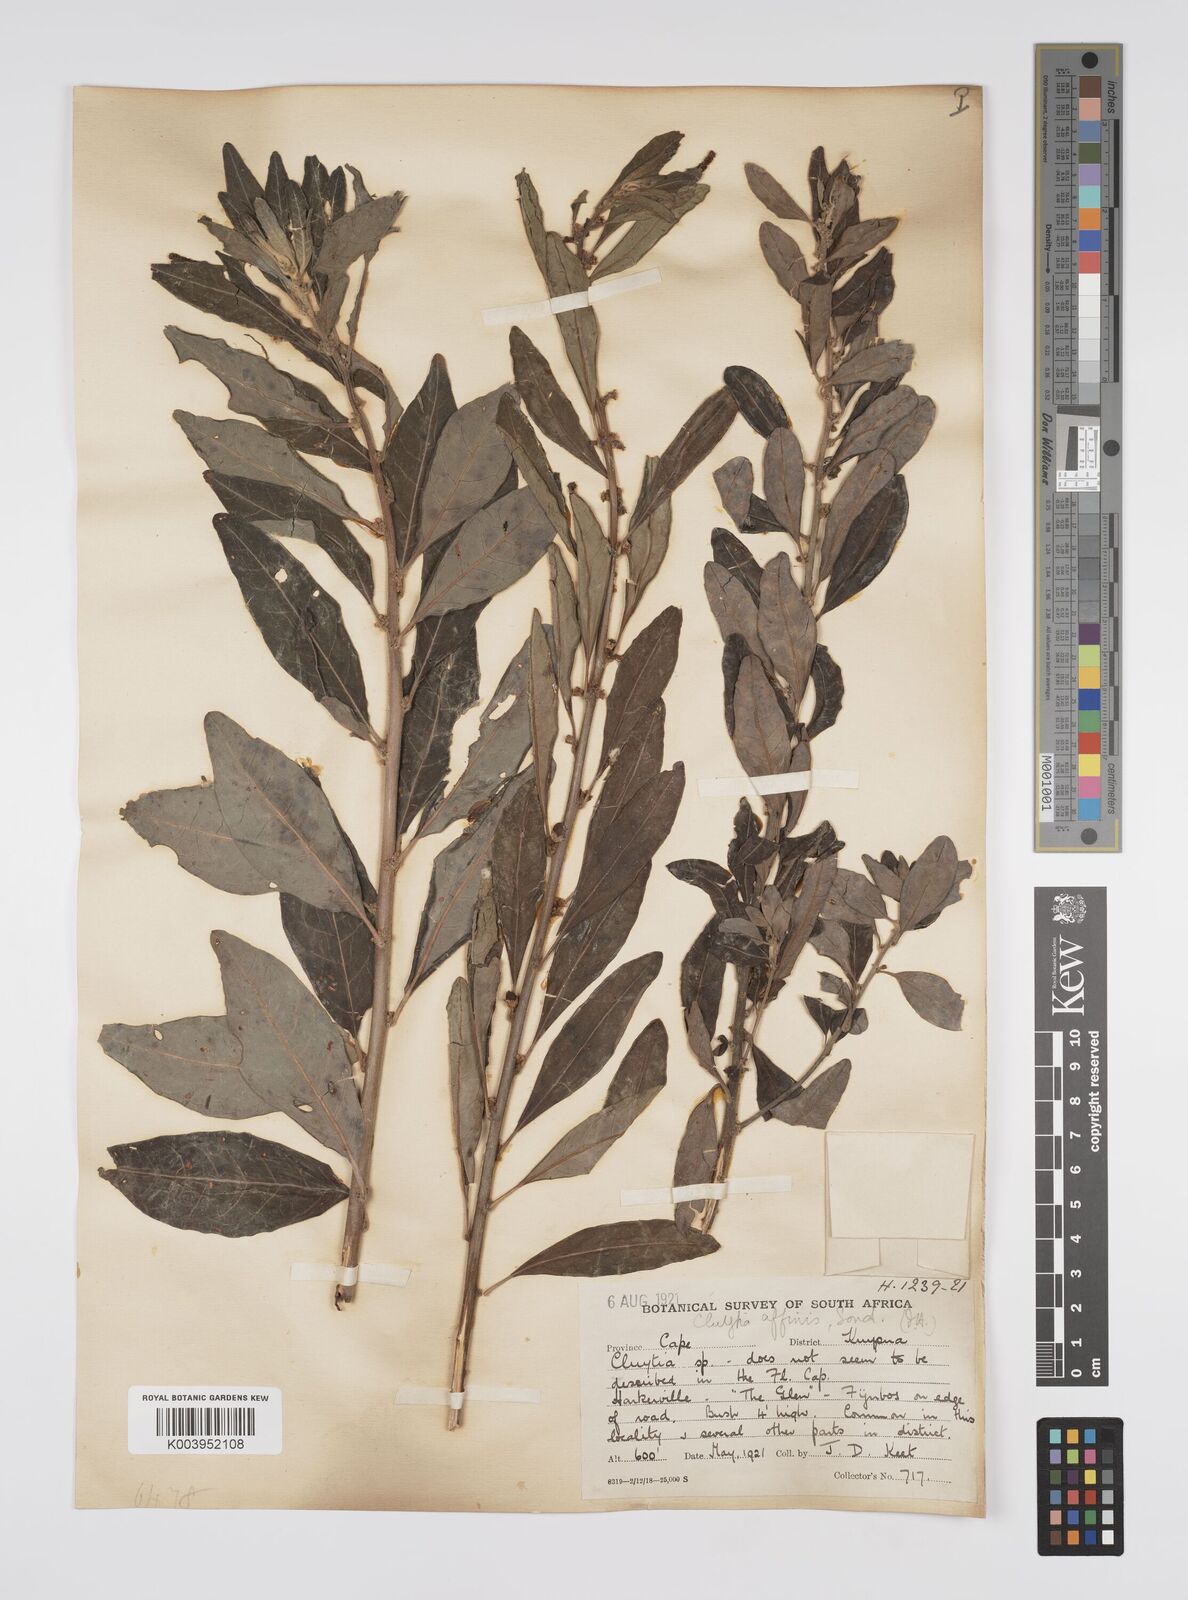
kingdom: Plantae
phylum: Tracheophyta
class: Magnoliopsida
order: Malpighiales
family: Peraceae
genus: Clutia
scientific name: Clutia affinis
